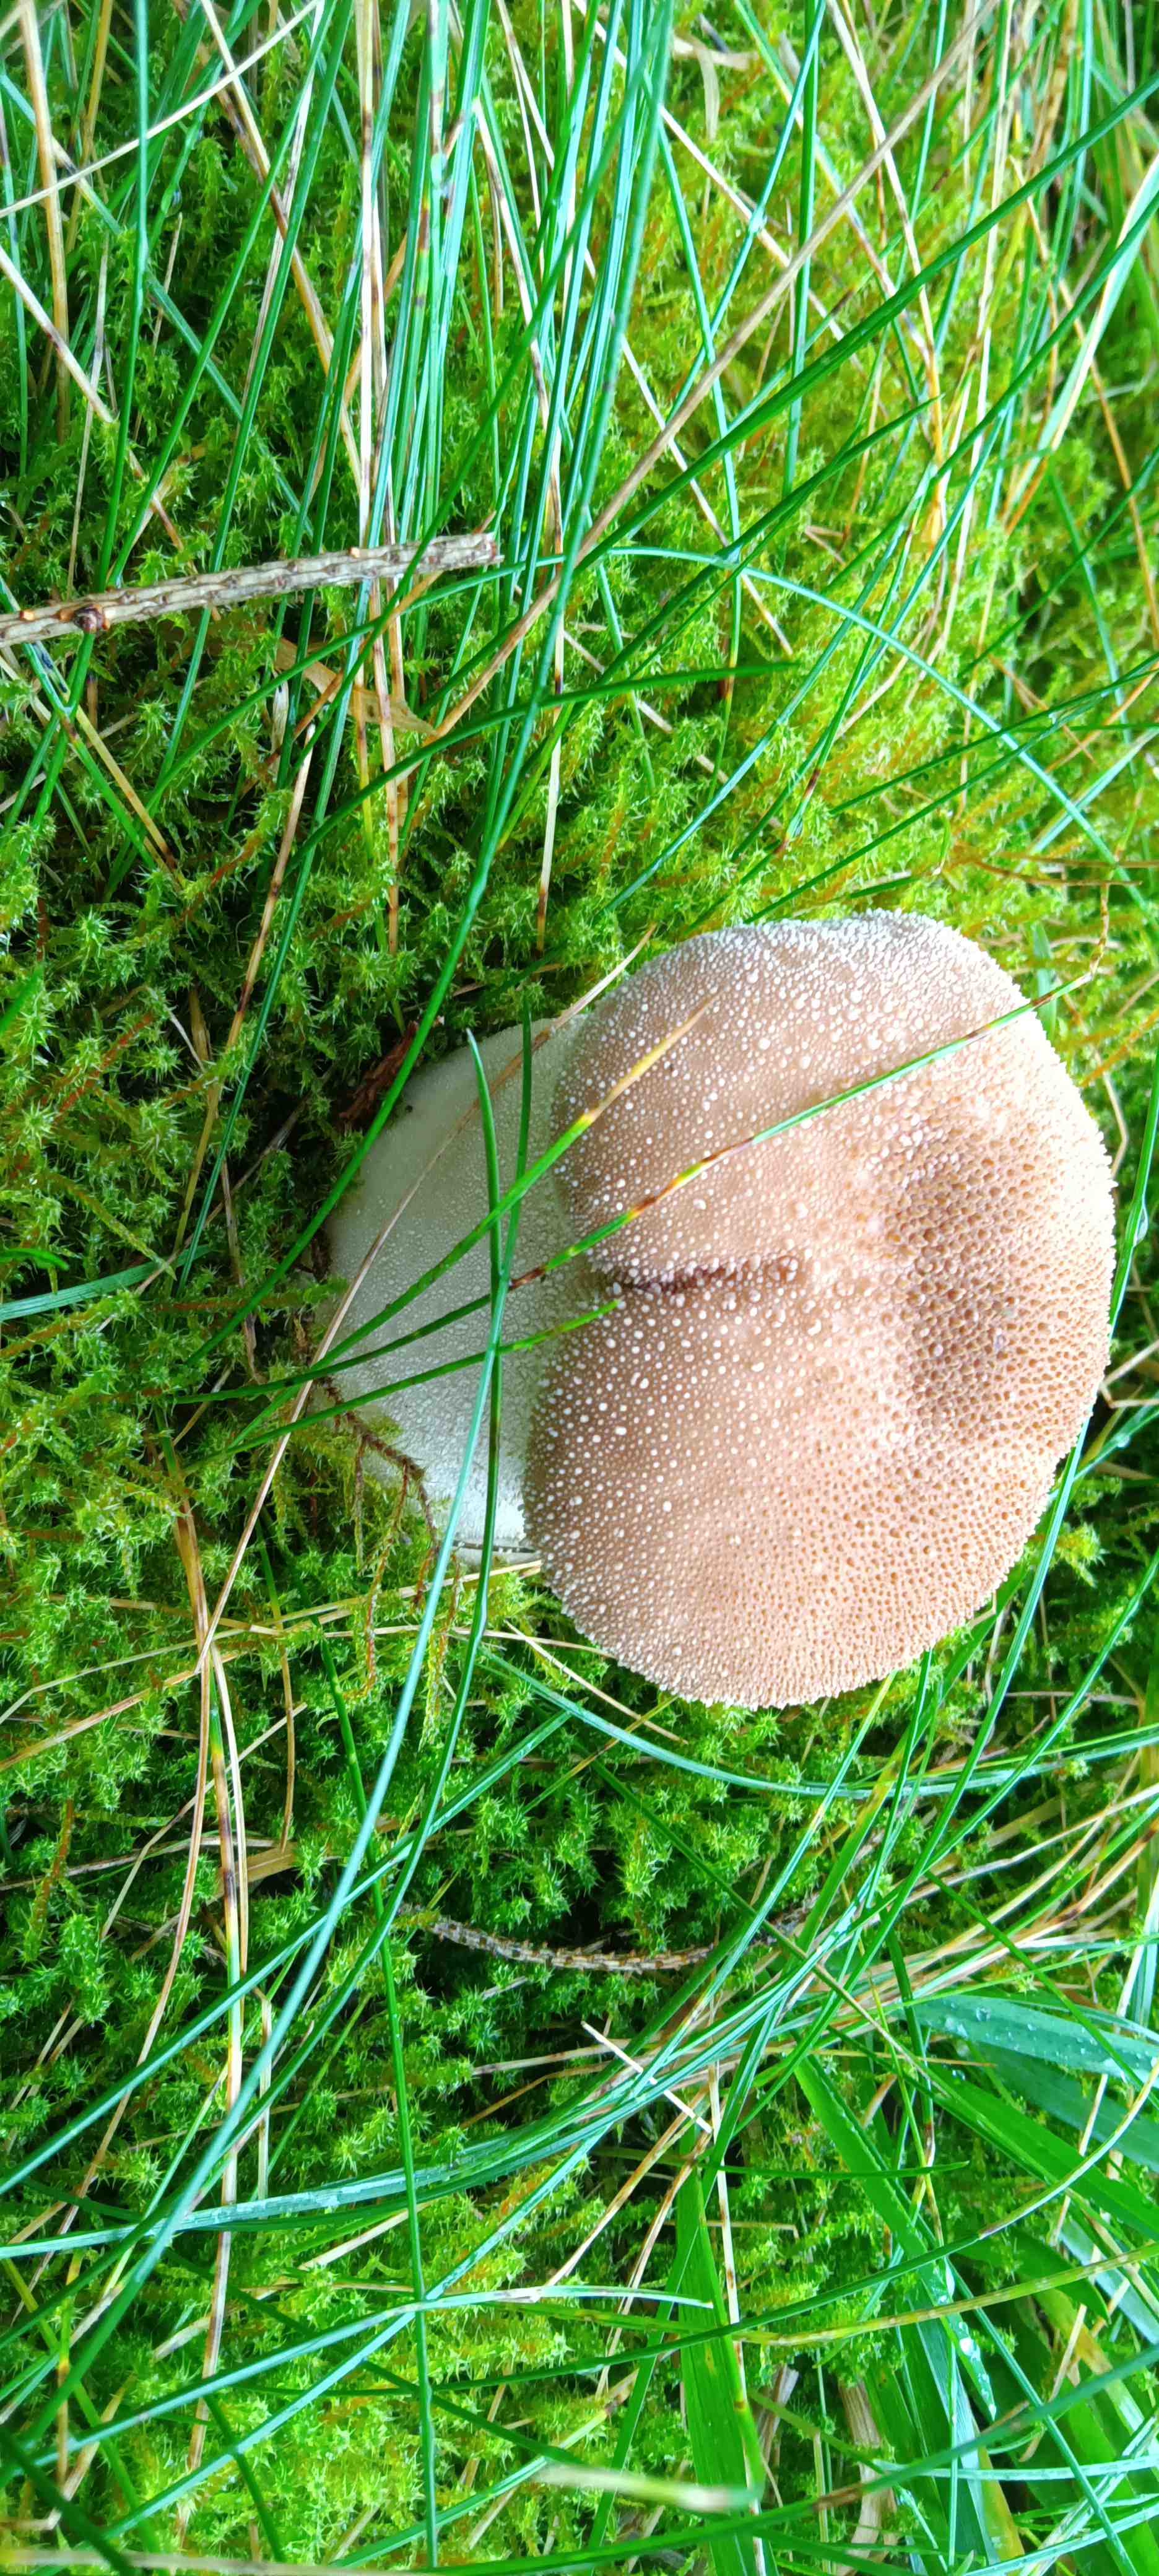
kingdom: Fungi
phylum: Basidiomycota
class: Agaricomycetes
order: Agaricales
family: Lycoperdaceae
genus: Lycoperdon
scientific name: Lycoperdon perlatum
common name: krystal-støvbold
